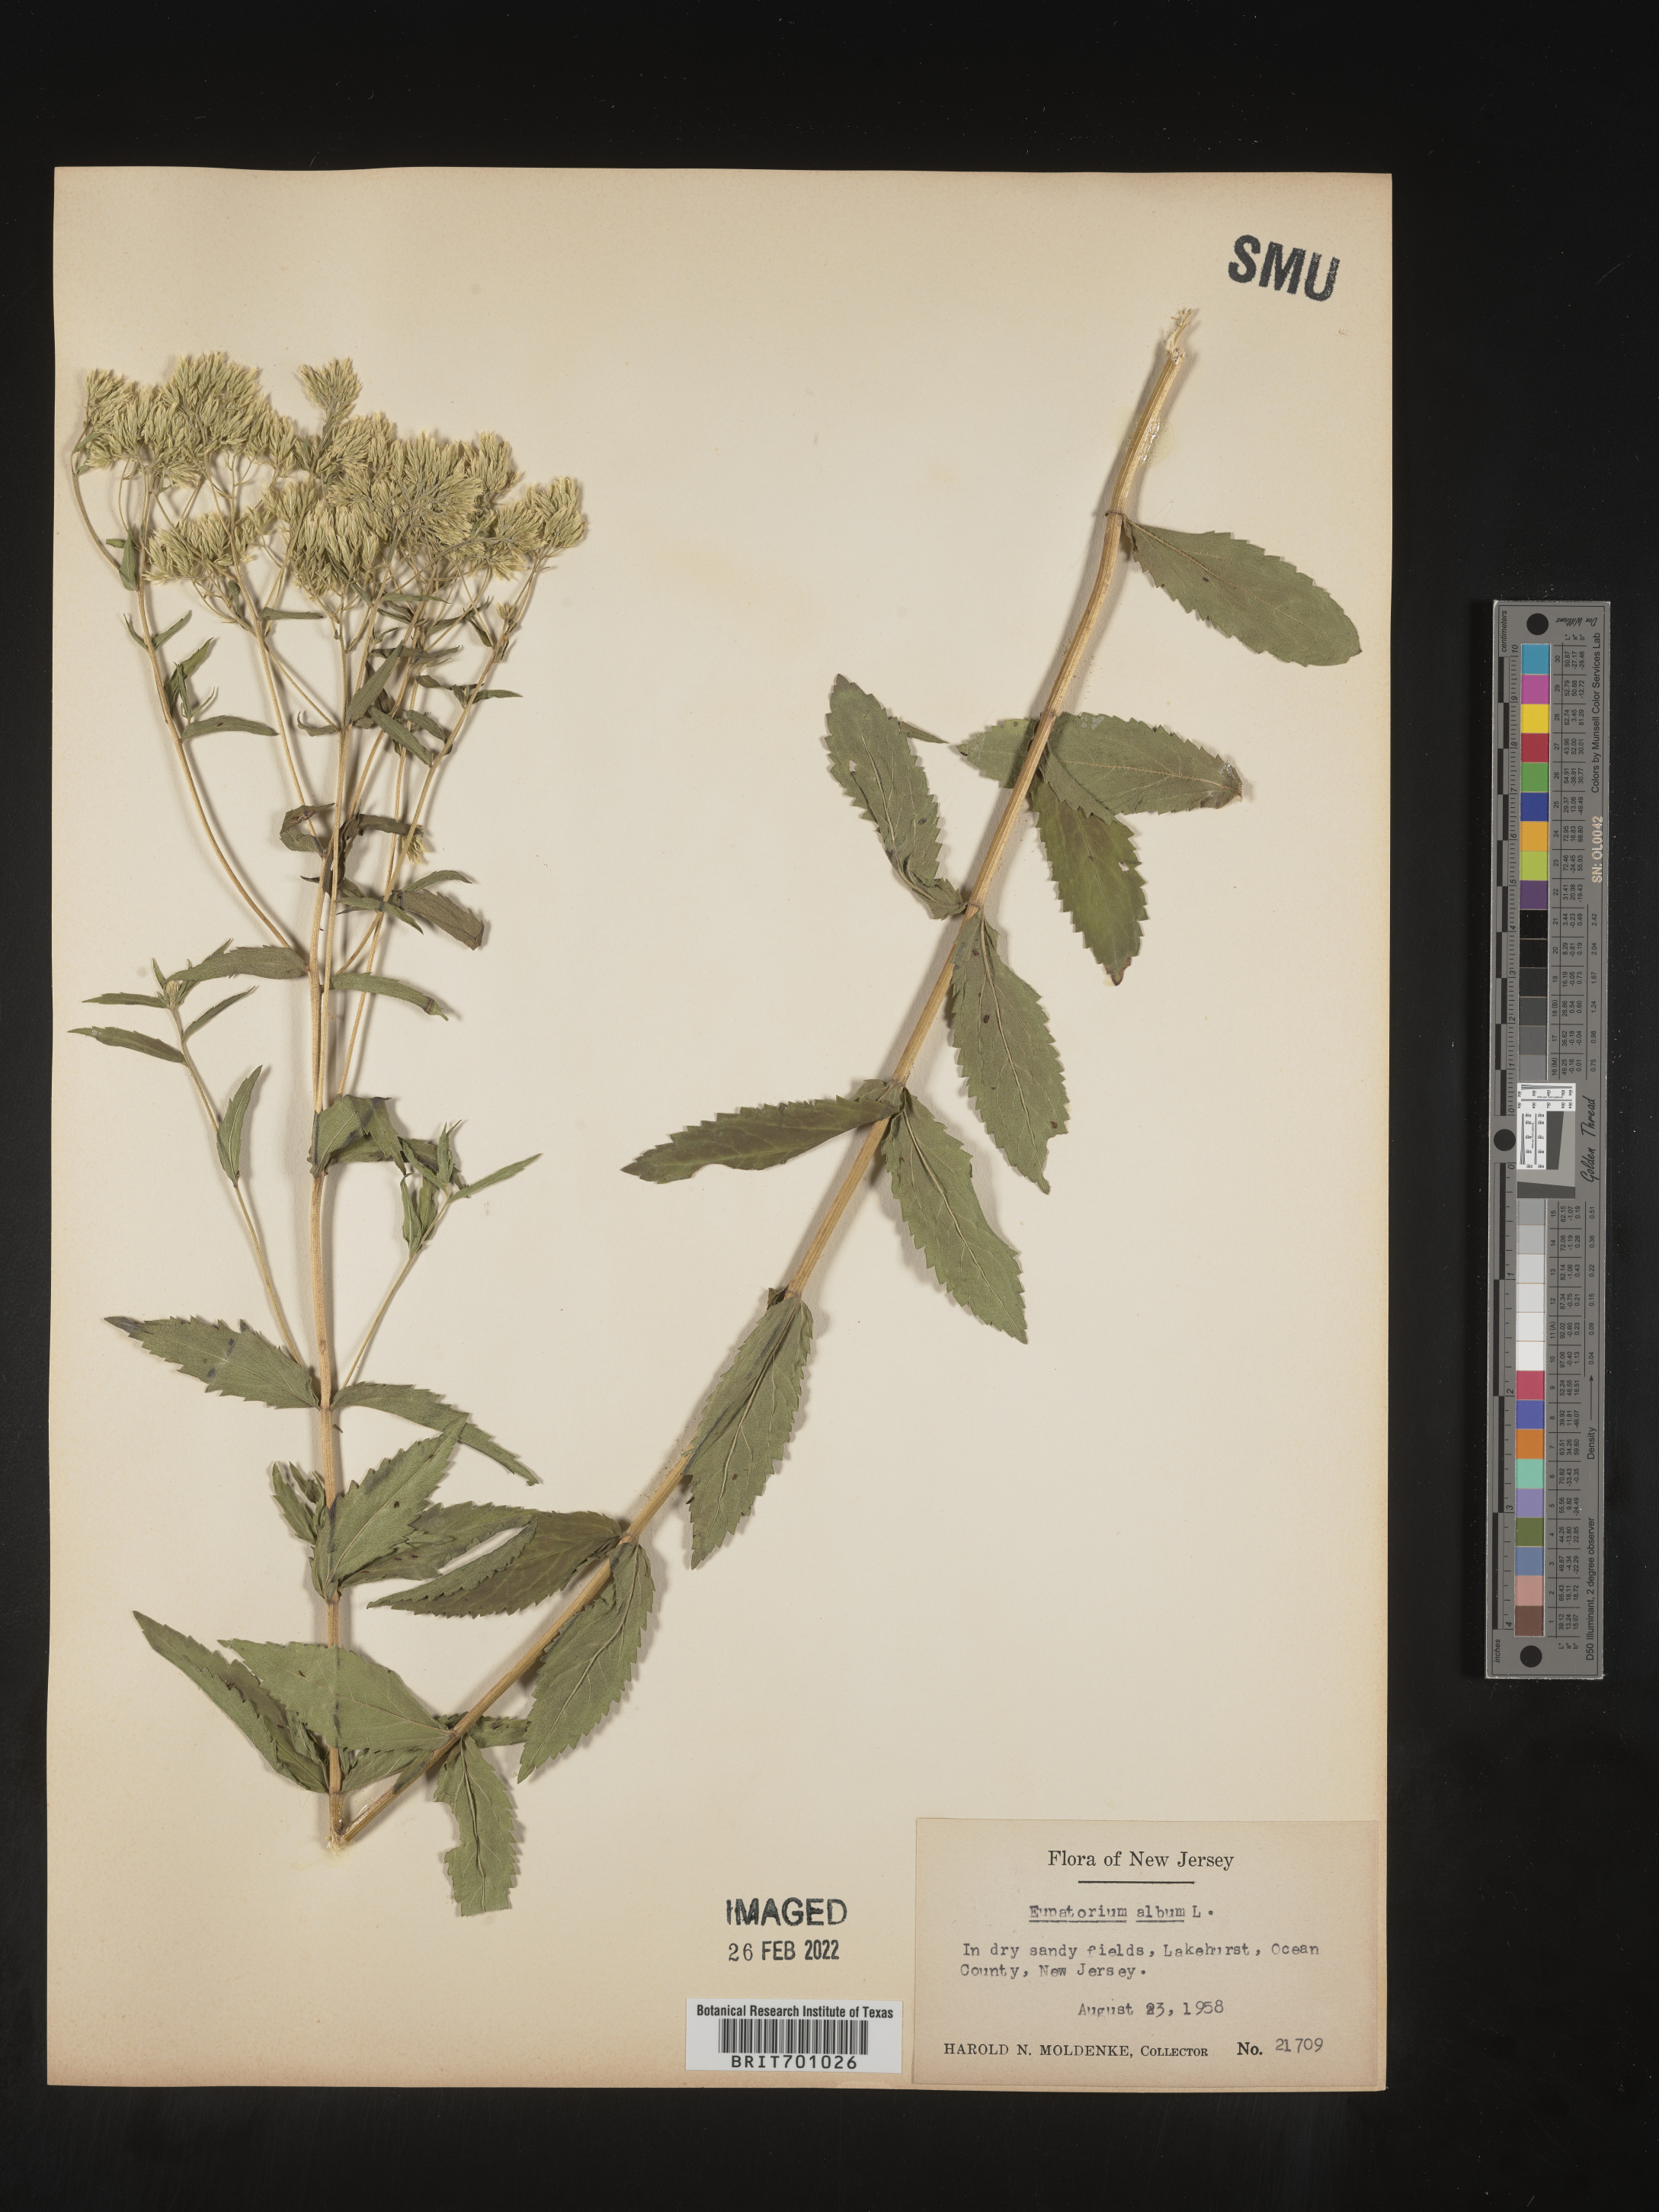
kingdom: Plantae
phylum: Tracheophyta
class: Magnoliopsida
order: Asterales
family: Asteraceae
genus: Eupatorium
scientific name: Eupatorium album
